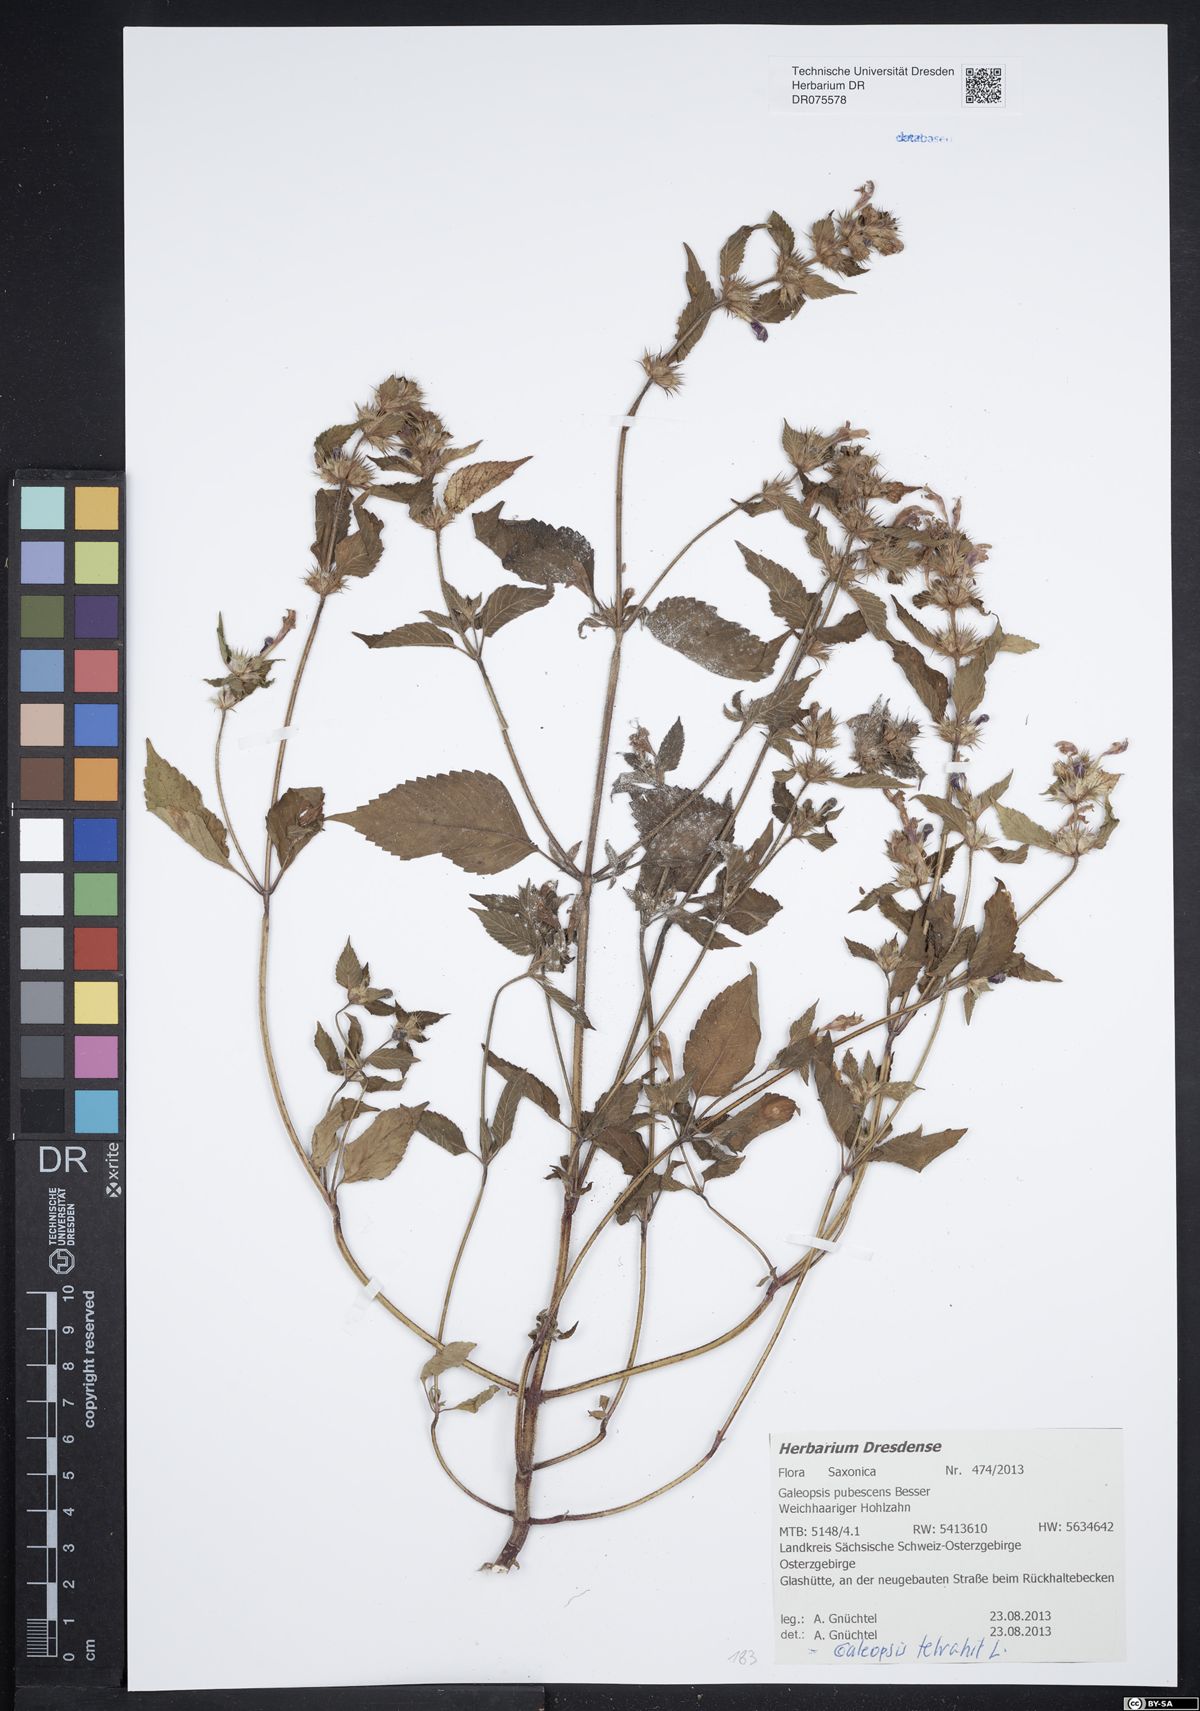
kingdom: Plantae
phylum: Tracheophyta
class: Magnoliopsida
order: Lamiales
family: Lamiaceae
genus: Galeopsis
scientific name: Galeopsis pubescens
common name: Downy hemp-nettle
